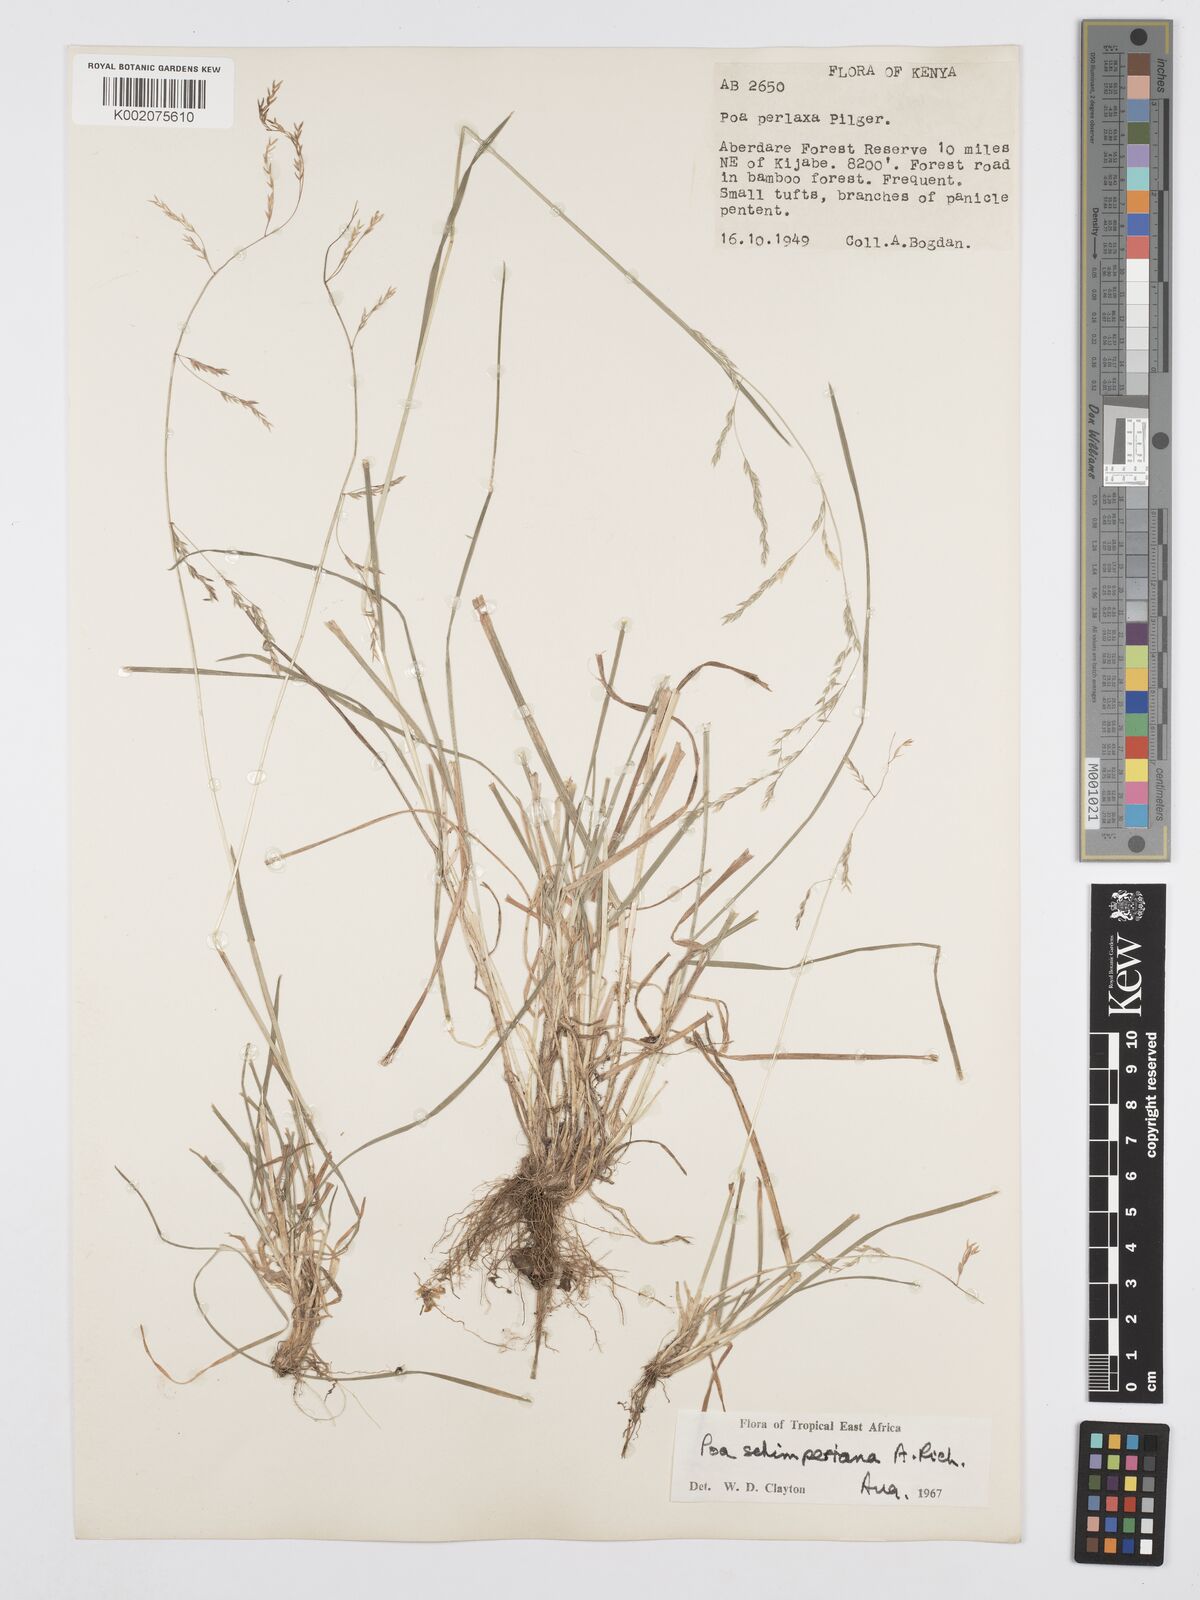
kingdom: Plantae
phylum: Tracheophyta
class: Liliopsida
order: Poales
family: Poaceae
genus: Poa
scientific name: Poa schimperiana
